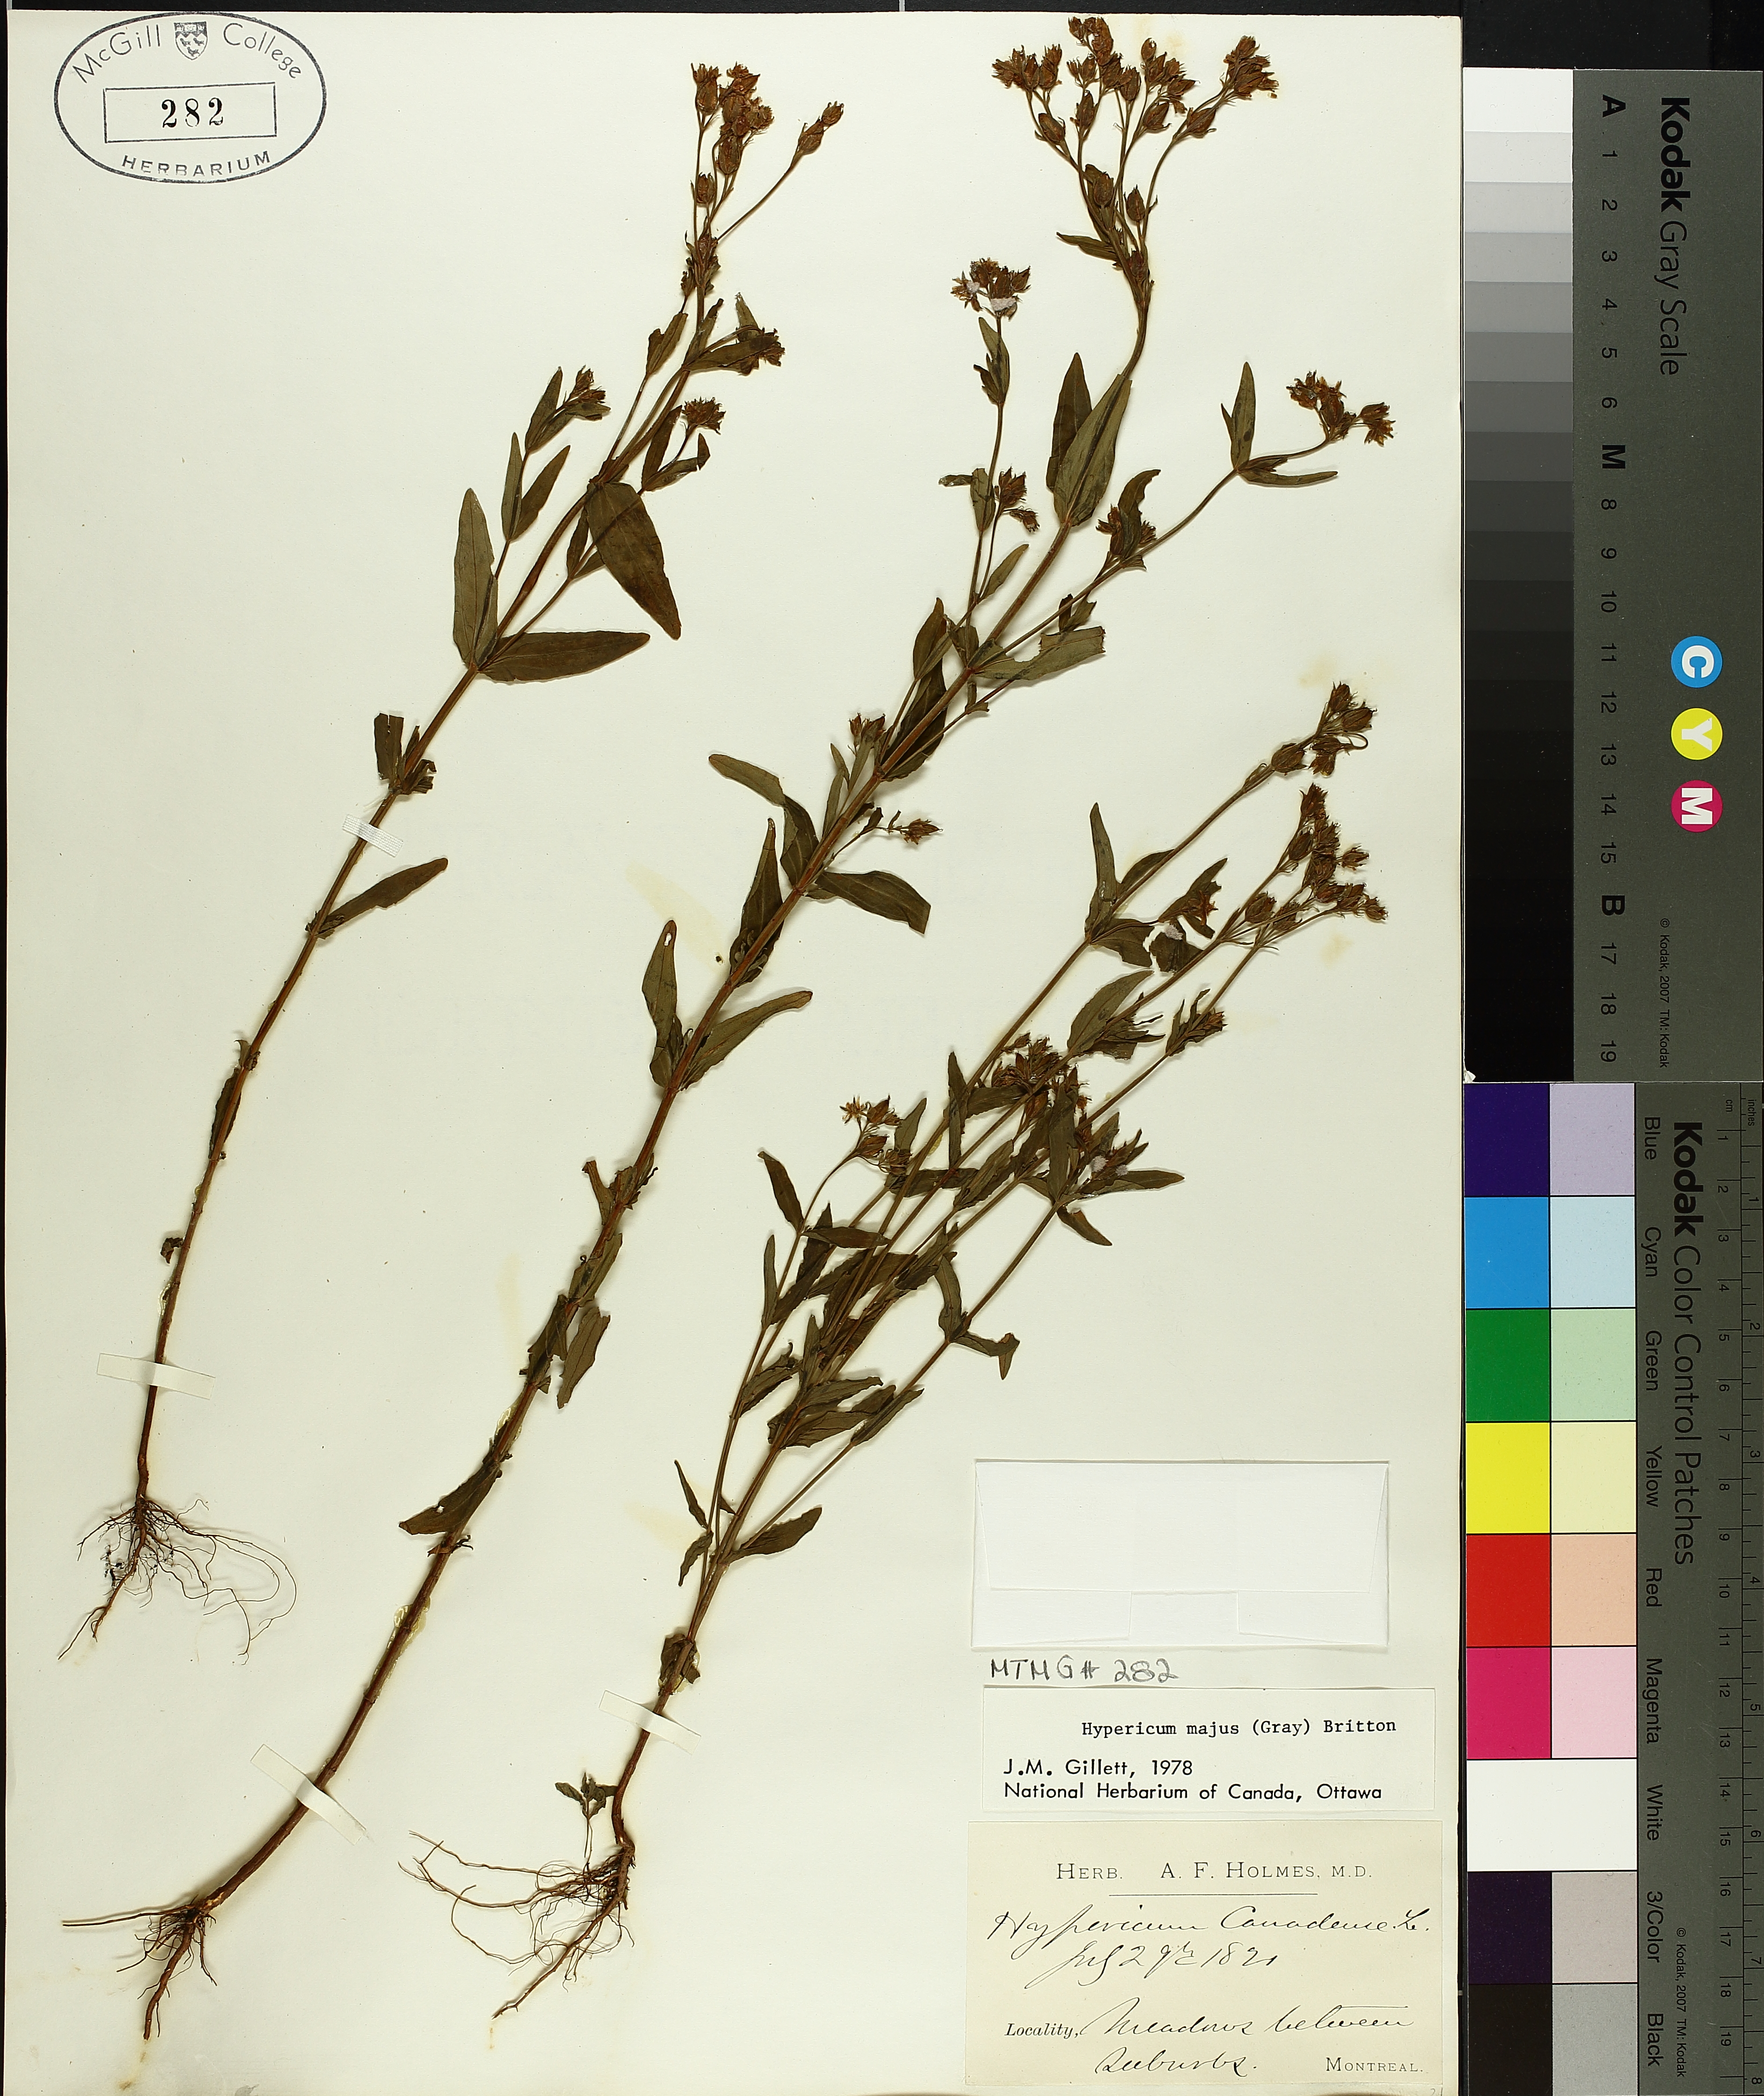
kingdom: Plantae
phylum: Tracheophyta
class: Magnoliopsida
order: Malpighiales
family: Hypericaceae
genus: Hypericum
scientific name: Hypericum majus
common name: Greater canadian st. john's-wort
